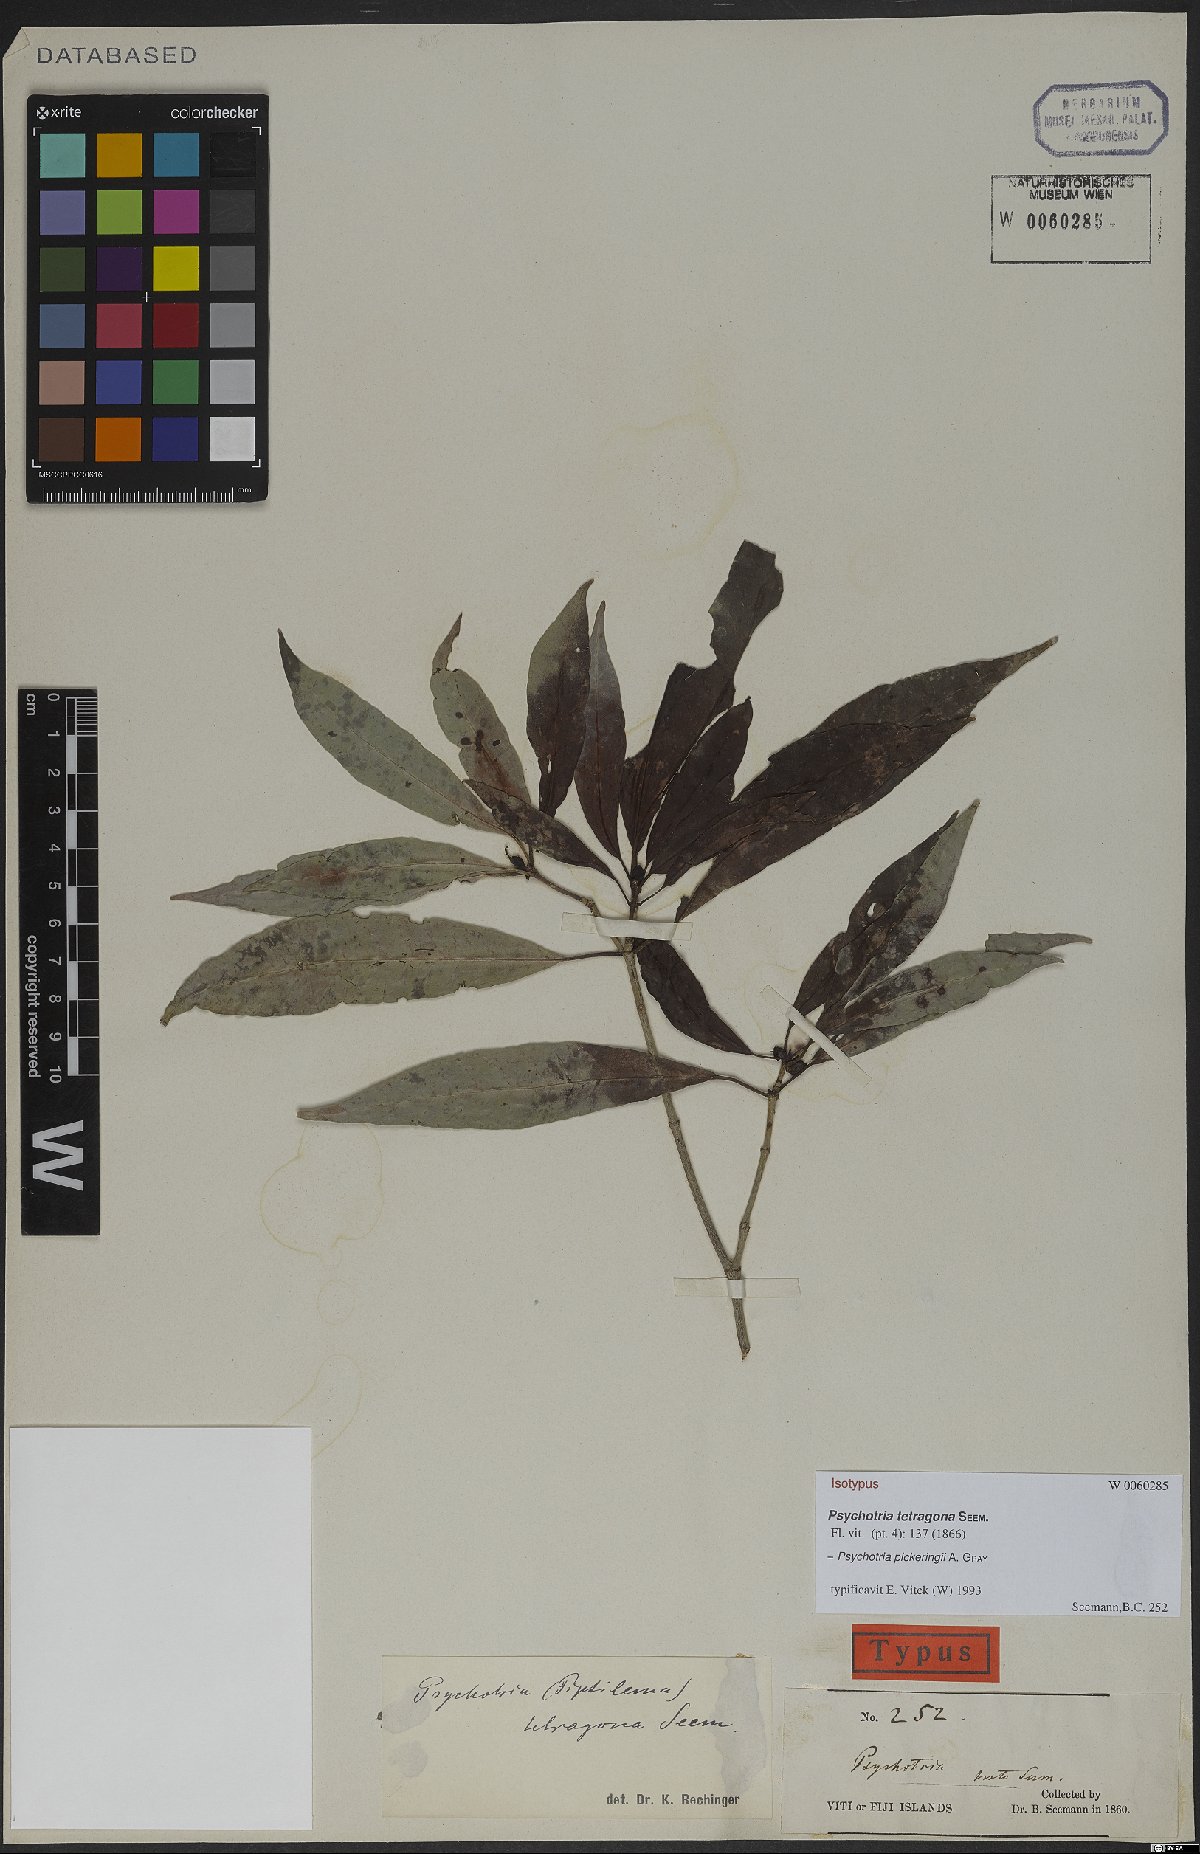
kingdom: Plantae
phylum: Tracheophyta
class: Magnoliopsida
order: Gentianales
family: Rubiaceae
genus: Psychotria
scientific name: Psychotria pickeringii
